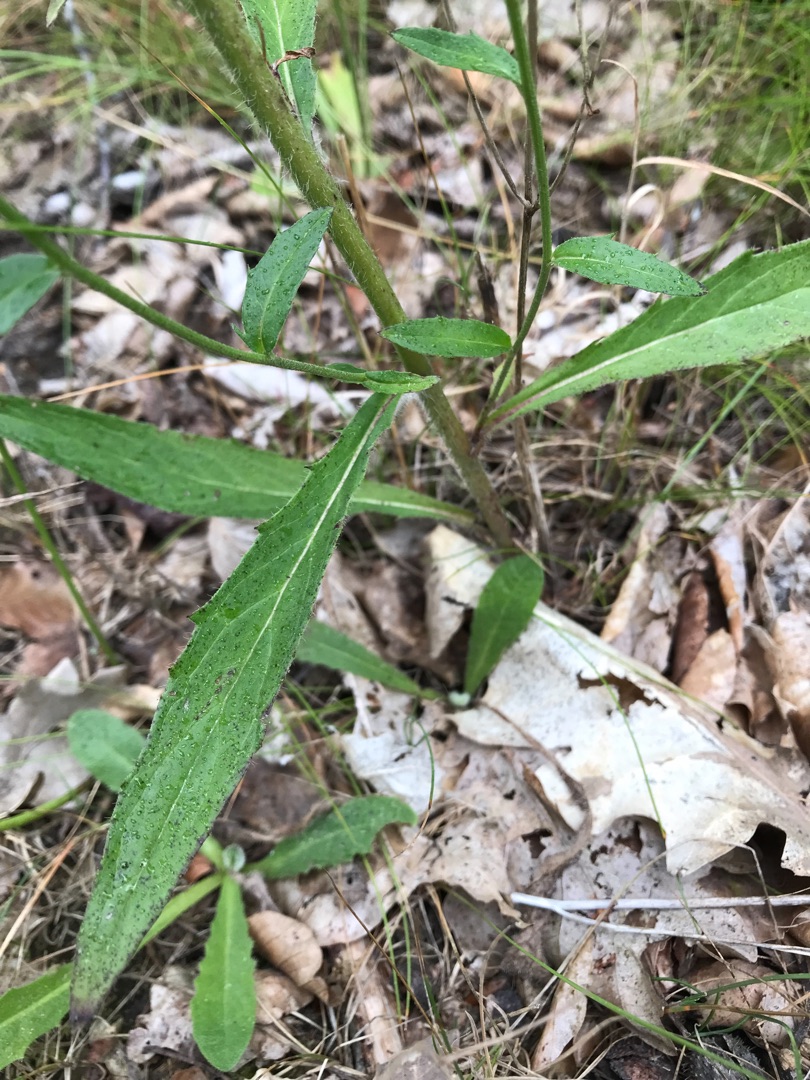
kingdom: Plantae
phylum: Tracheophyta
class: Magnoliopsida
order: Asterales
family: Asteraceae
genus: Hieracium
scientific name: Hieracium
